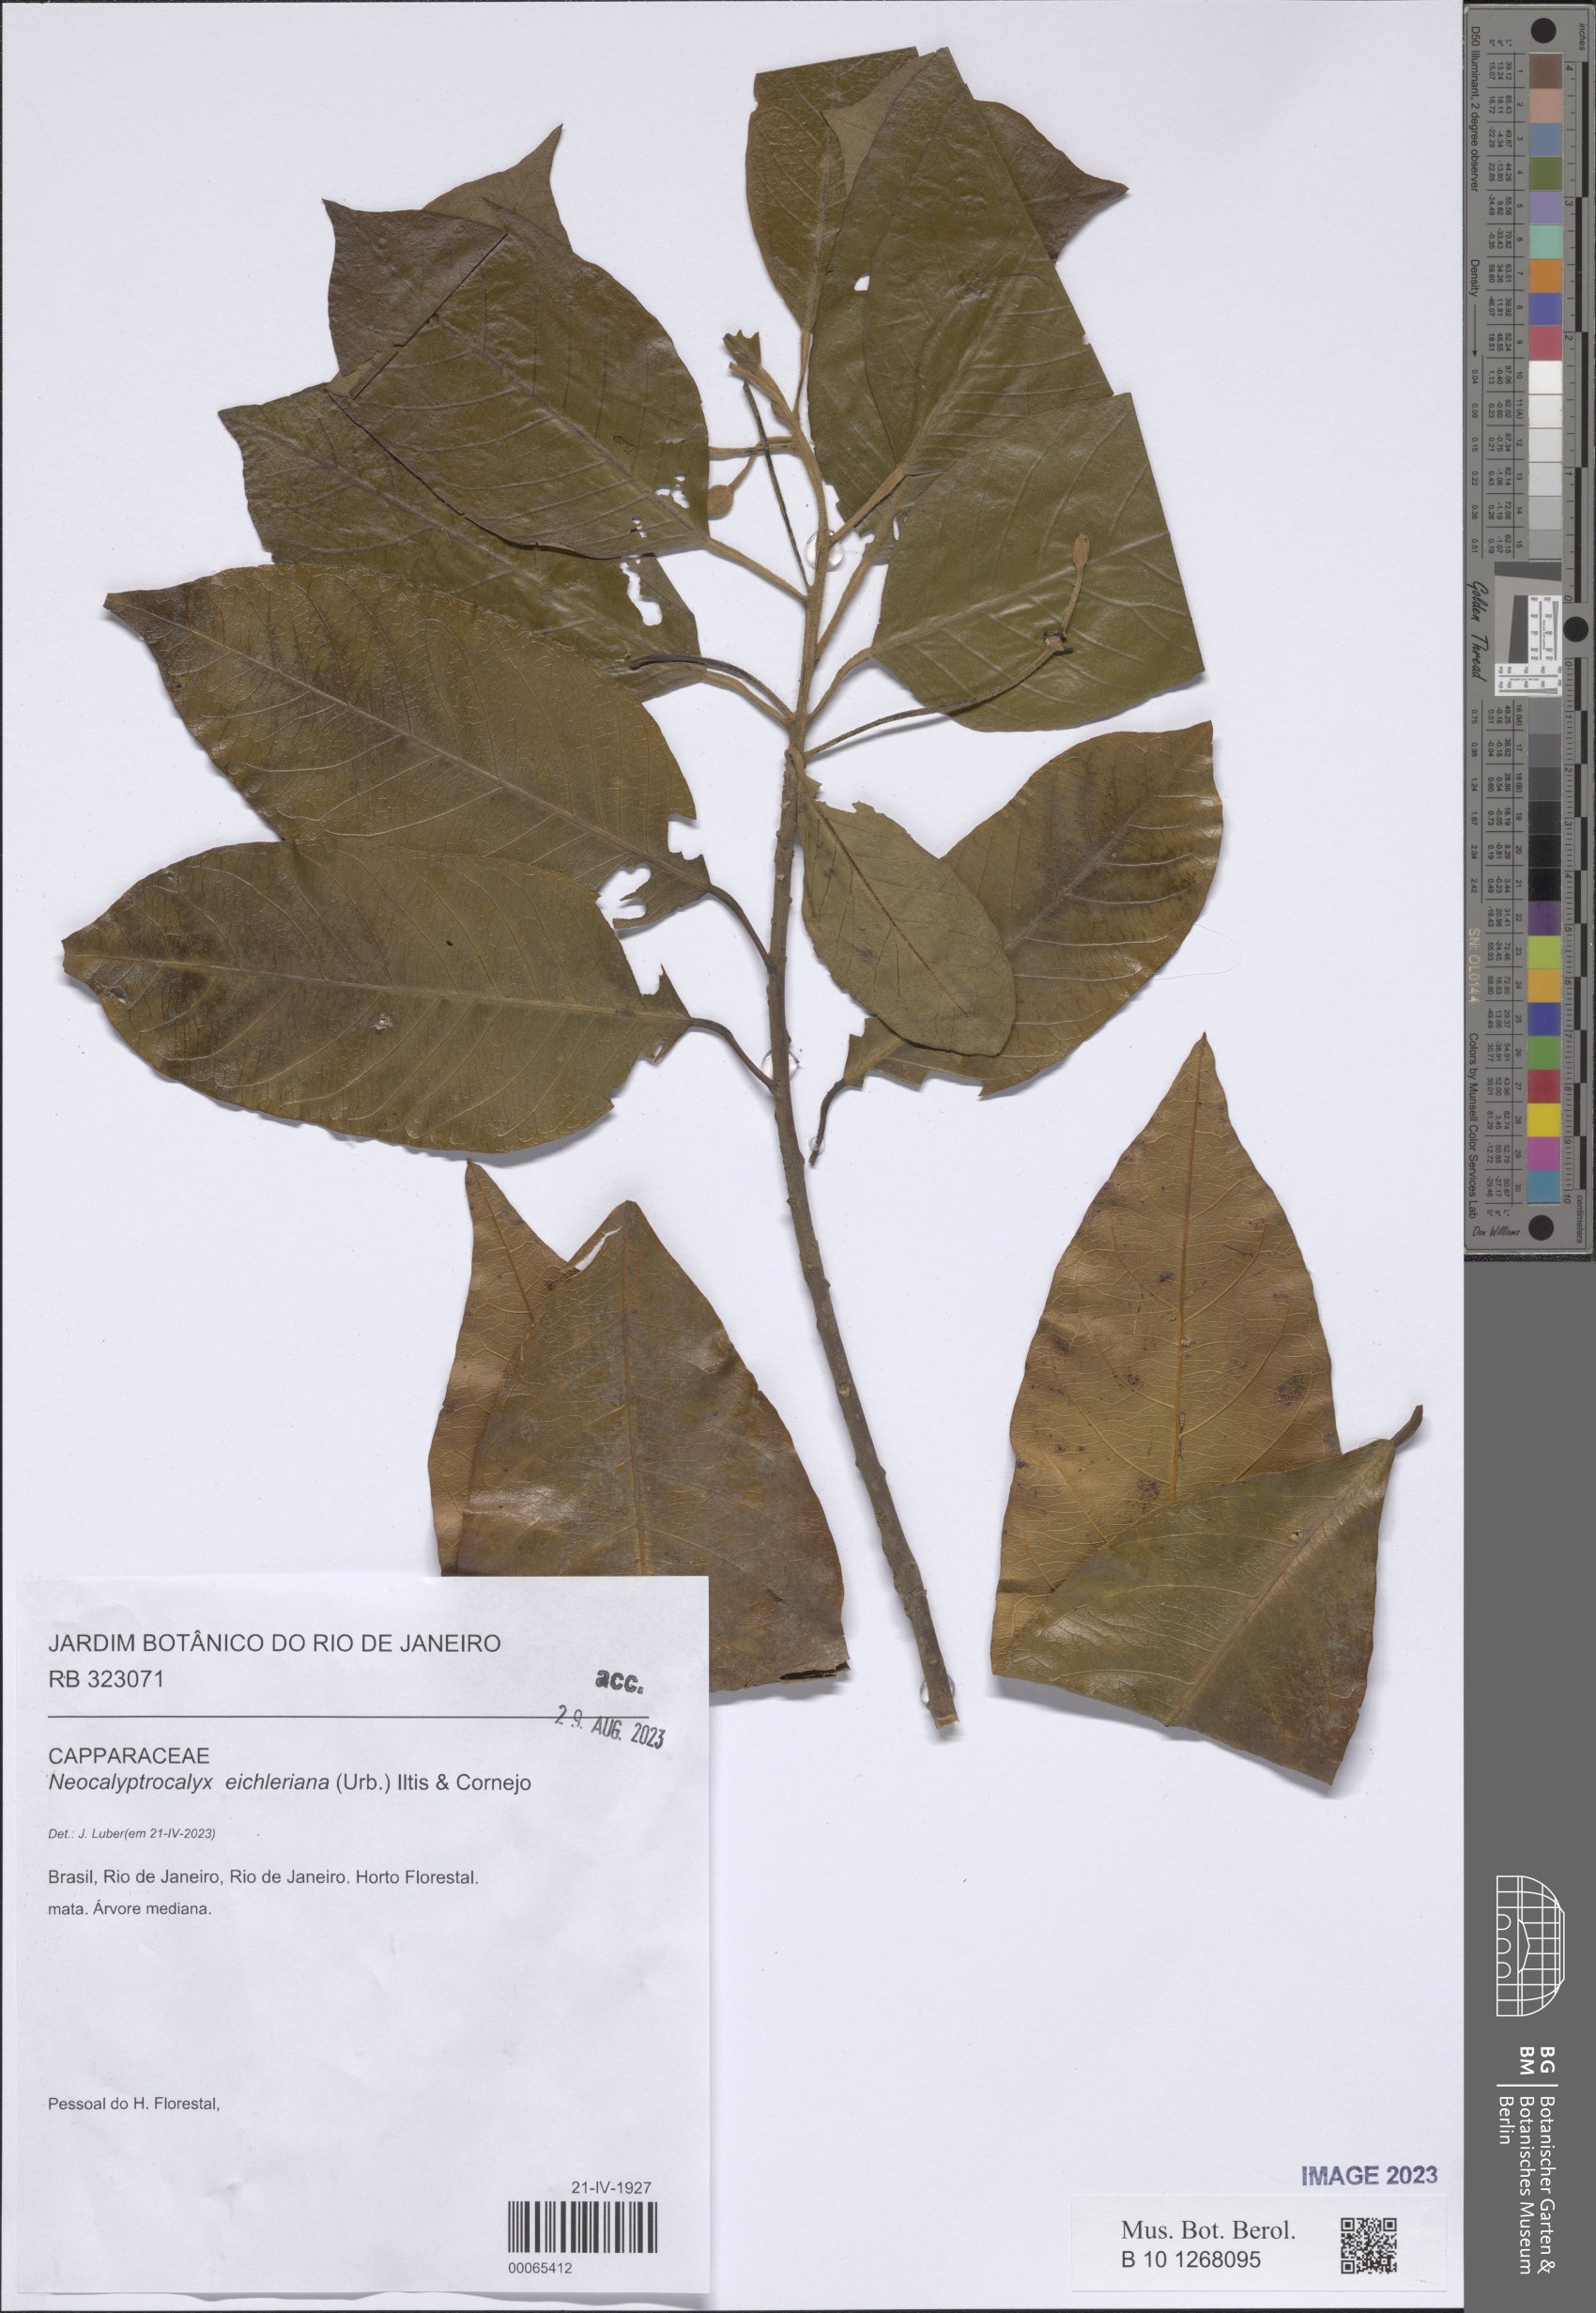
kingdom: Plantae
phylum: Tracheophyta
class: Magnoliopsida
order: Brassicales
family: Capparaceae
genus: Neocalyptrocalyx
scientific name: Neocalyptrocalyx eichleriana
